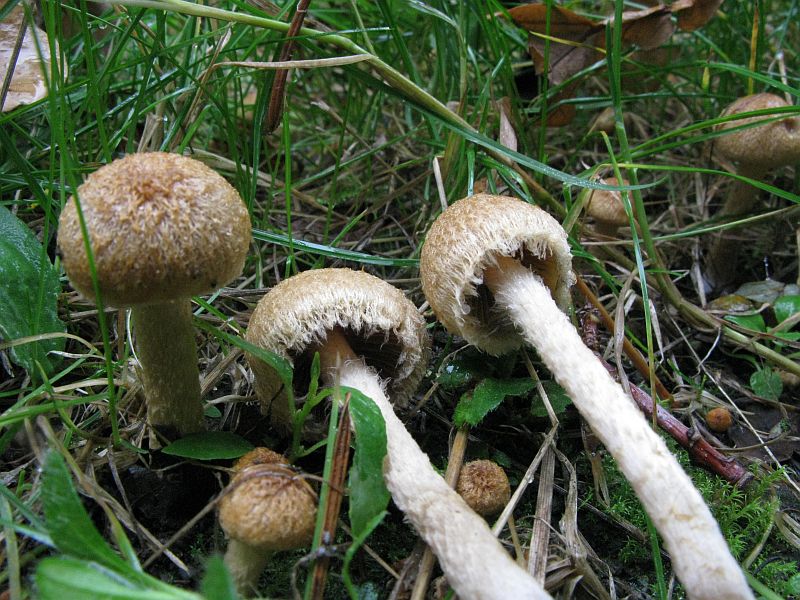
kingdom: Fungi
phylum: Basidiomycota
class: Agaricomycetes
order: Agaricales
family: Psathyrellaceae
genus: Lacrymaria
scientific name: Lacrymaria lacrymabunda
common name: grædende mørkhat
